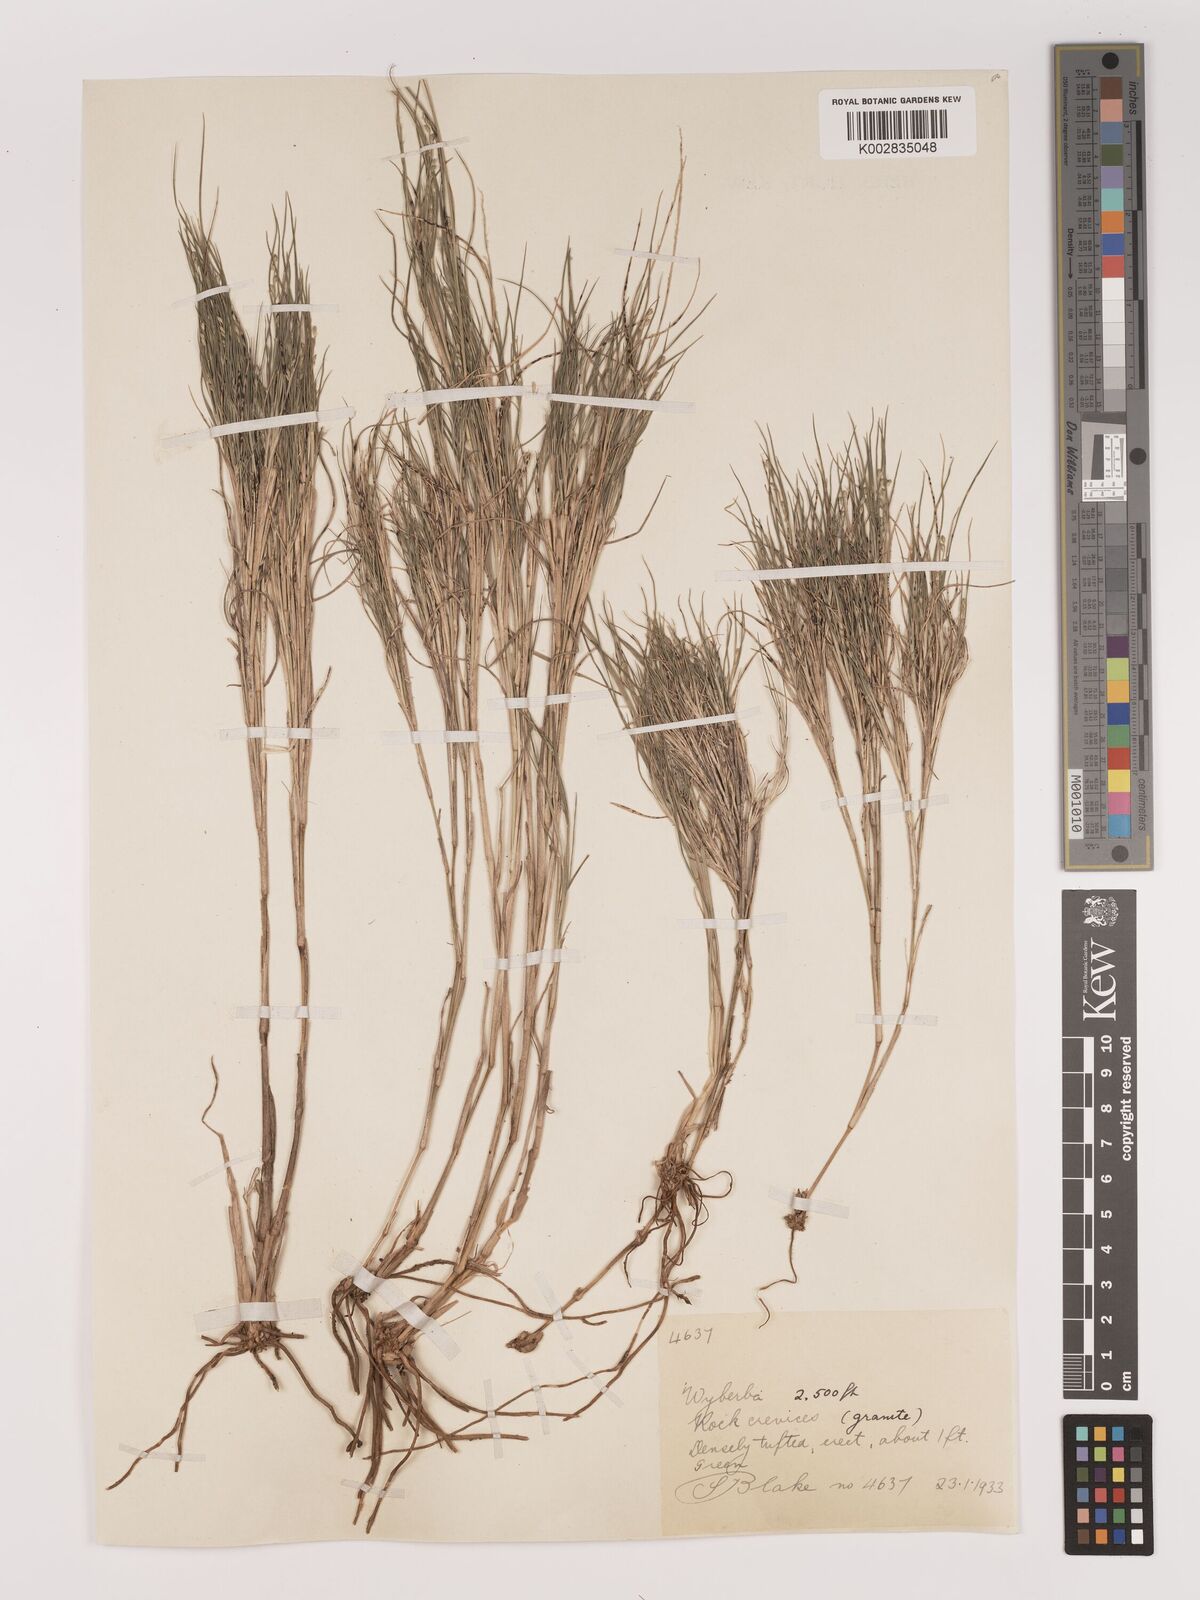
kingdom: Plantae
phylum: Tracheophyta
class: Liliopsida
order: Poales
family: Poaceae
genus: Setaria
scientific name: Setaria
